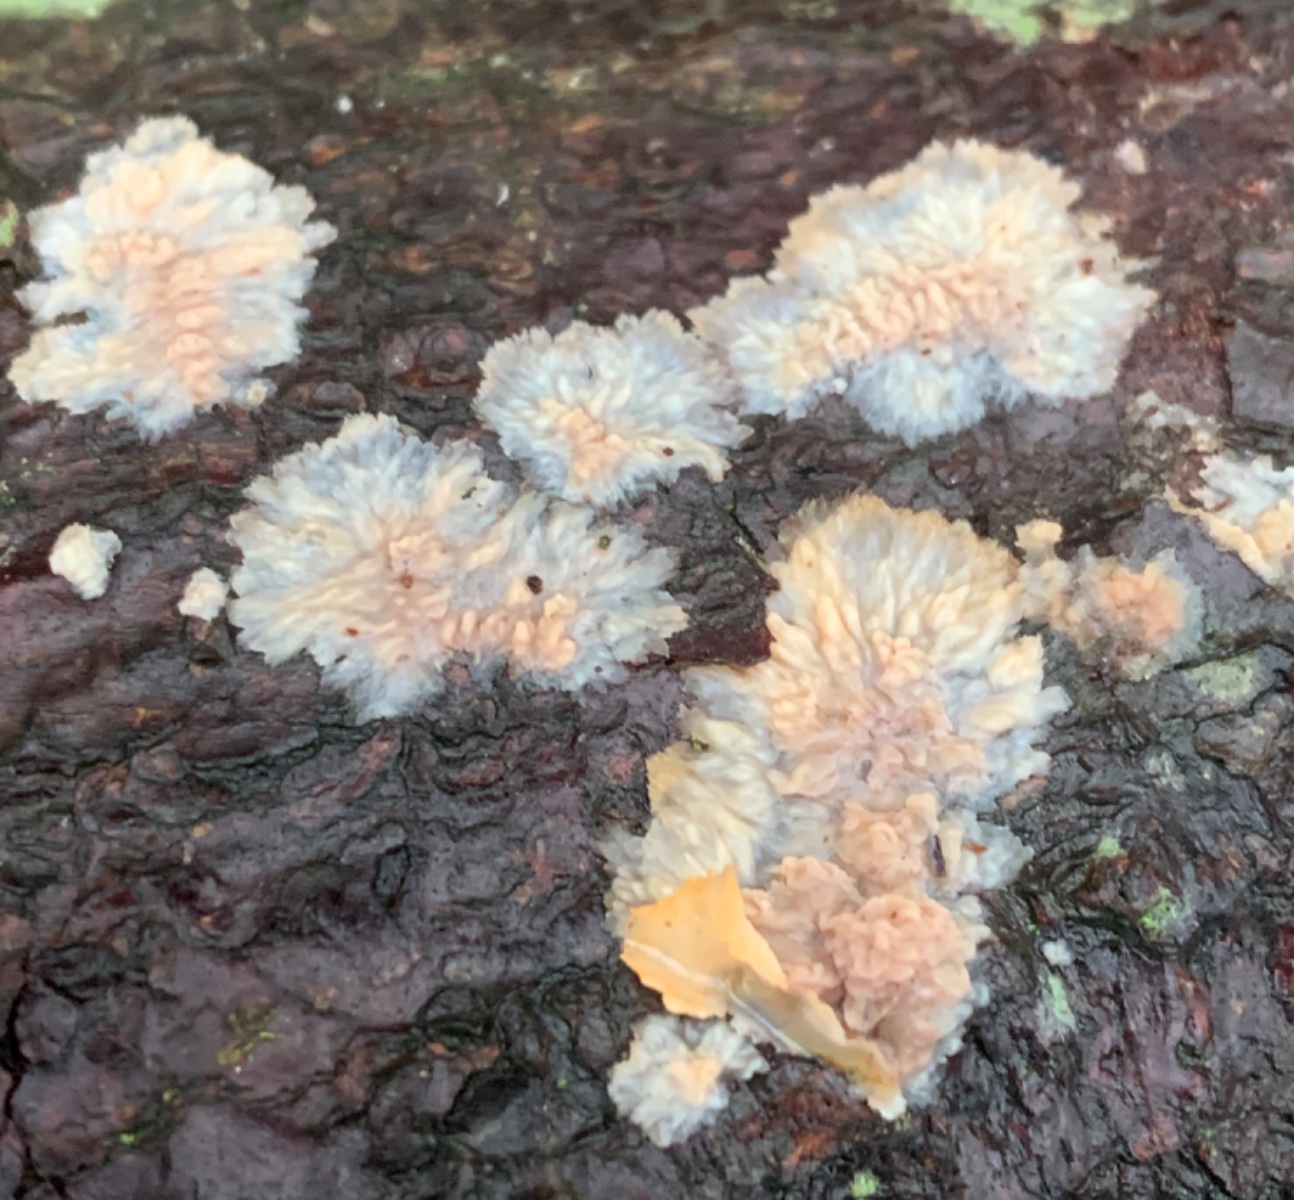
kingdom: Fungi
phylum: Basidiomycota
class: Agaricomycetes
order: Polyporales
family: Meruliaceae
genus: Phlebia
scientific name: Phlebia radiata
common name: stråle-åresvamp
